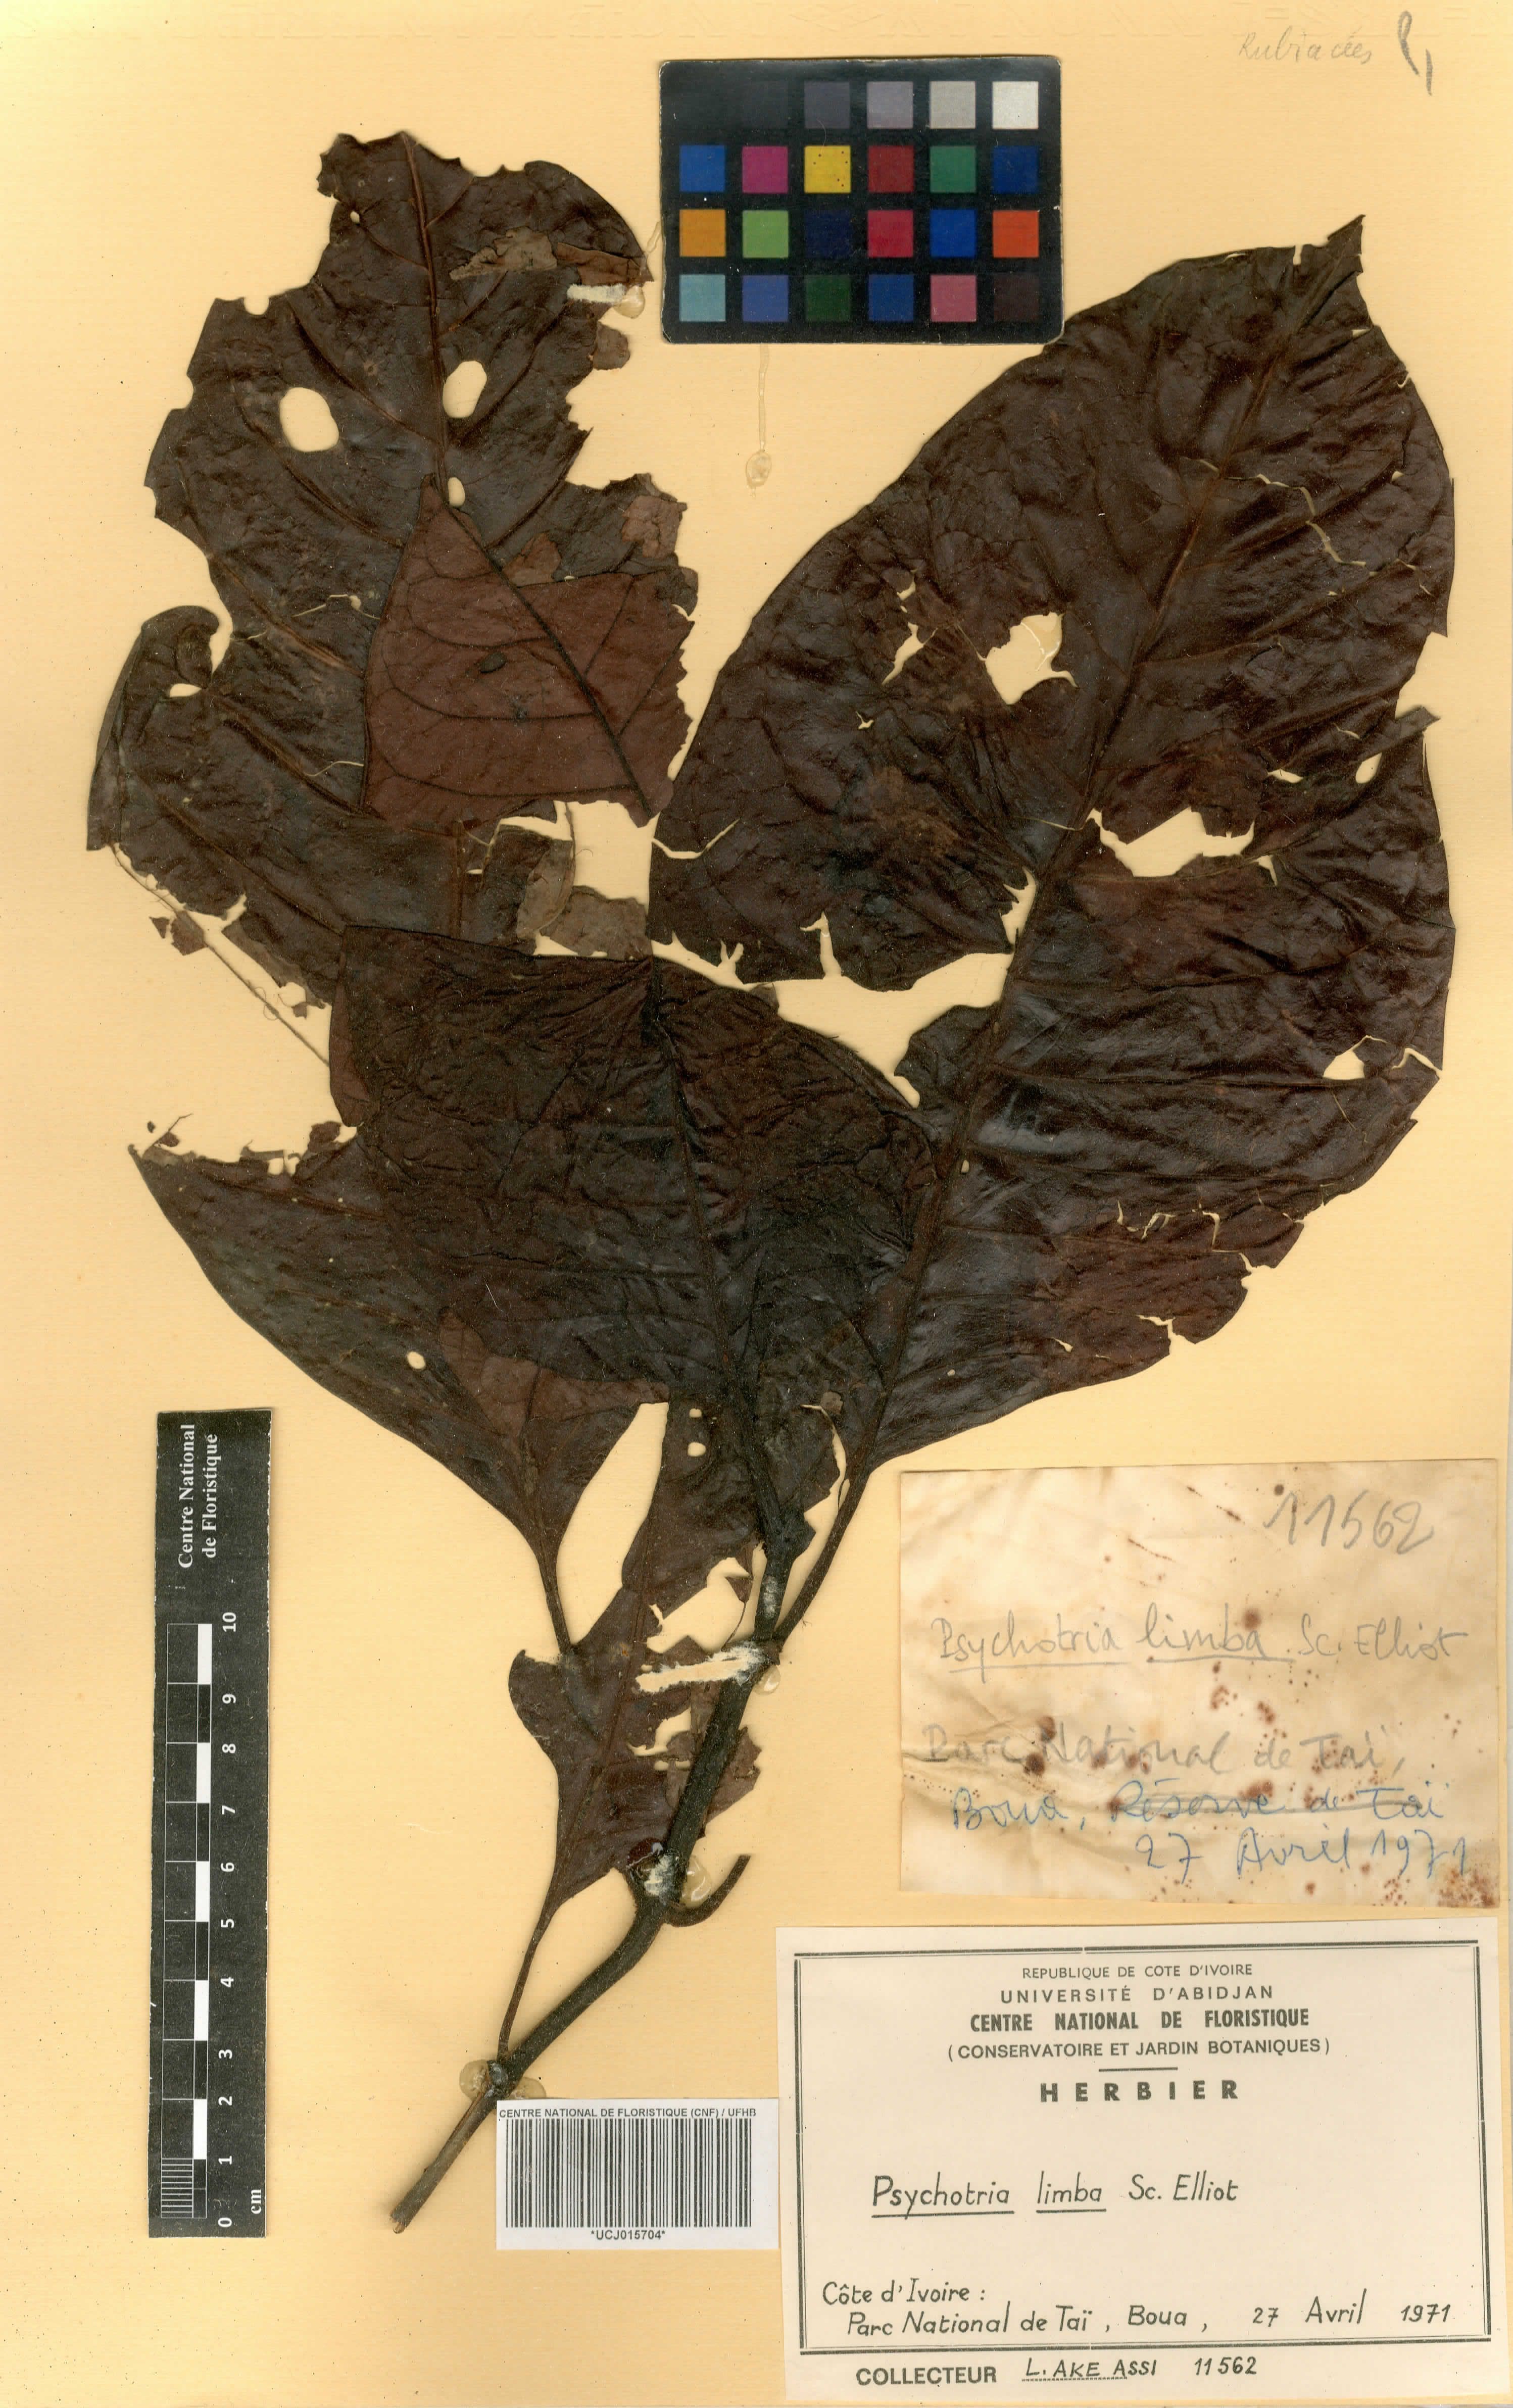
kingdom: Plantae
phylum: Tracheophyta
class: Magnoliopsida
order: Gentianales
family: Rubiaceae
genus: Psychotria
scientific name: Psychotria limba
